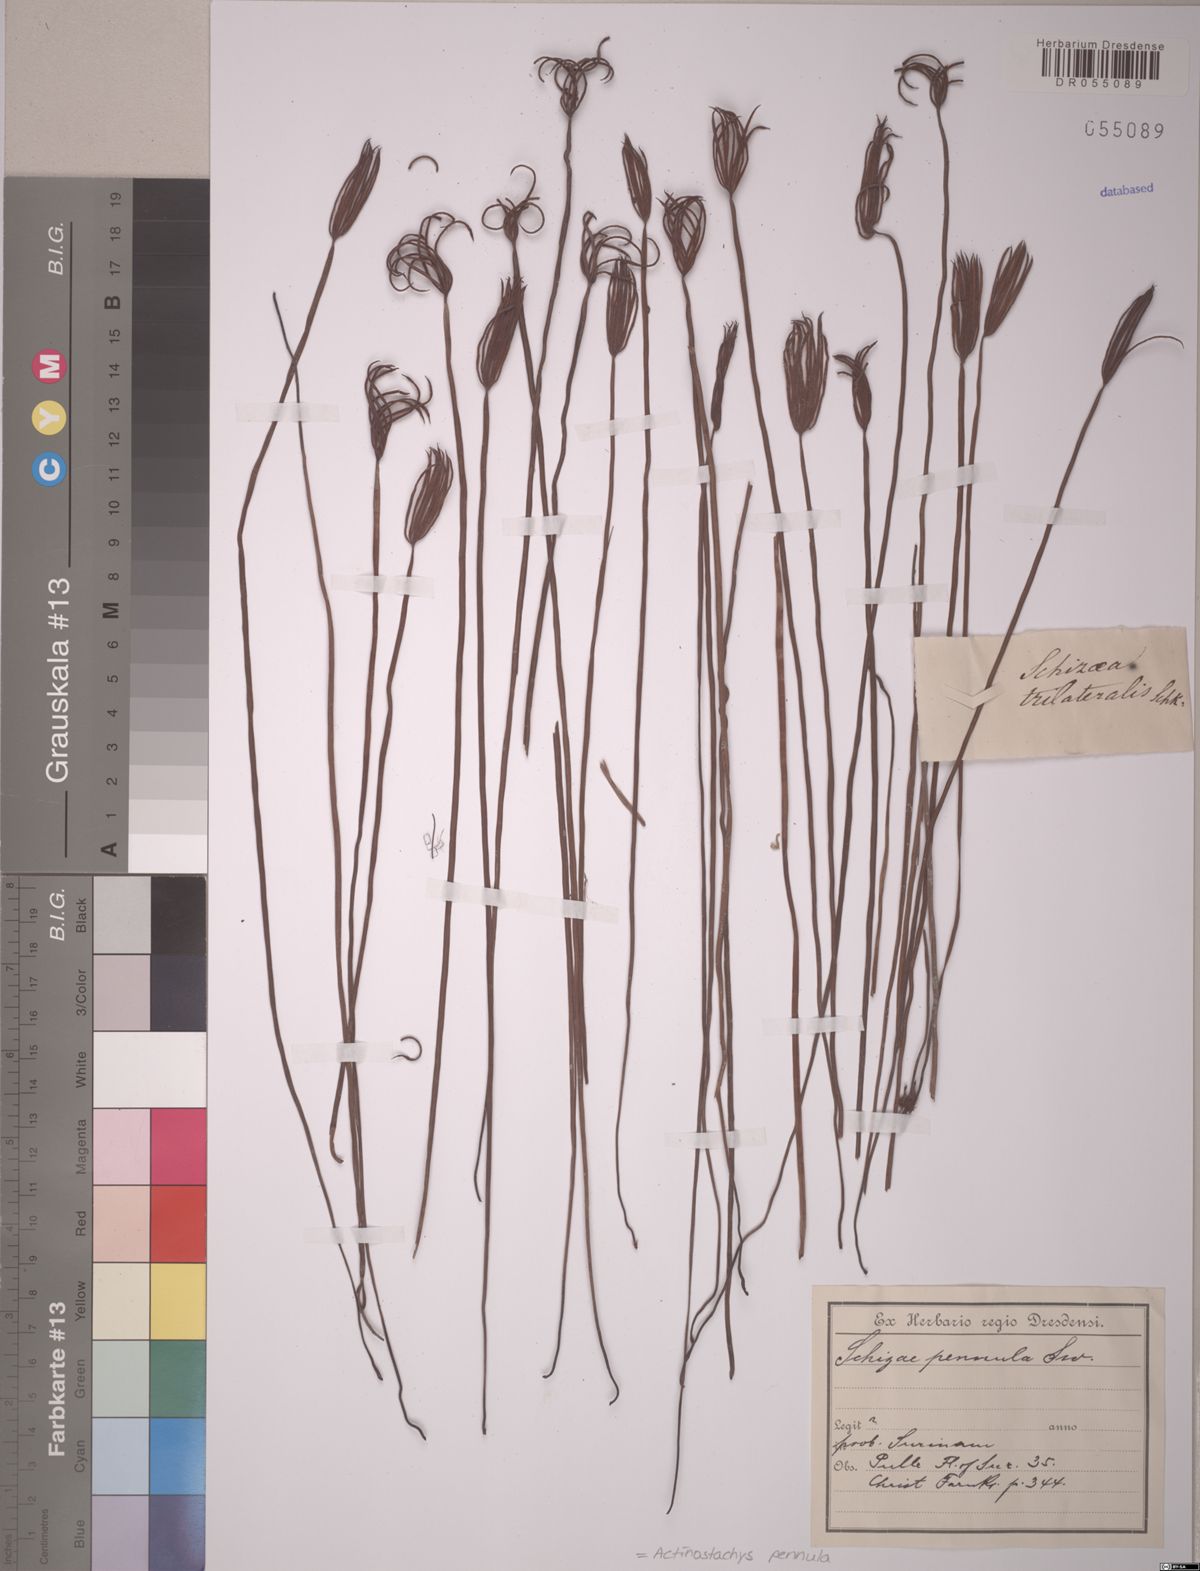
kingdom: Plantae
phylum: Tracheophyta
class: Polypodiopsida
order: Schizaeales
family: Schizaeaceae
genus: Actinostachys
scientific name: Actinostachys pennula
